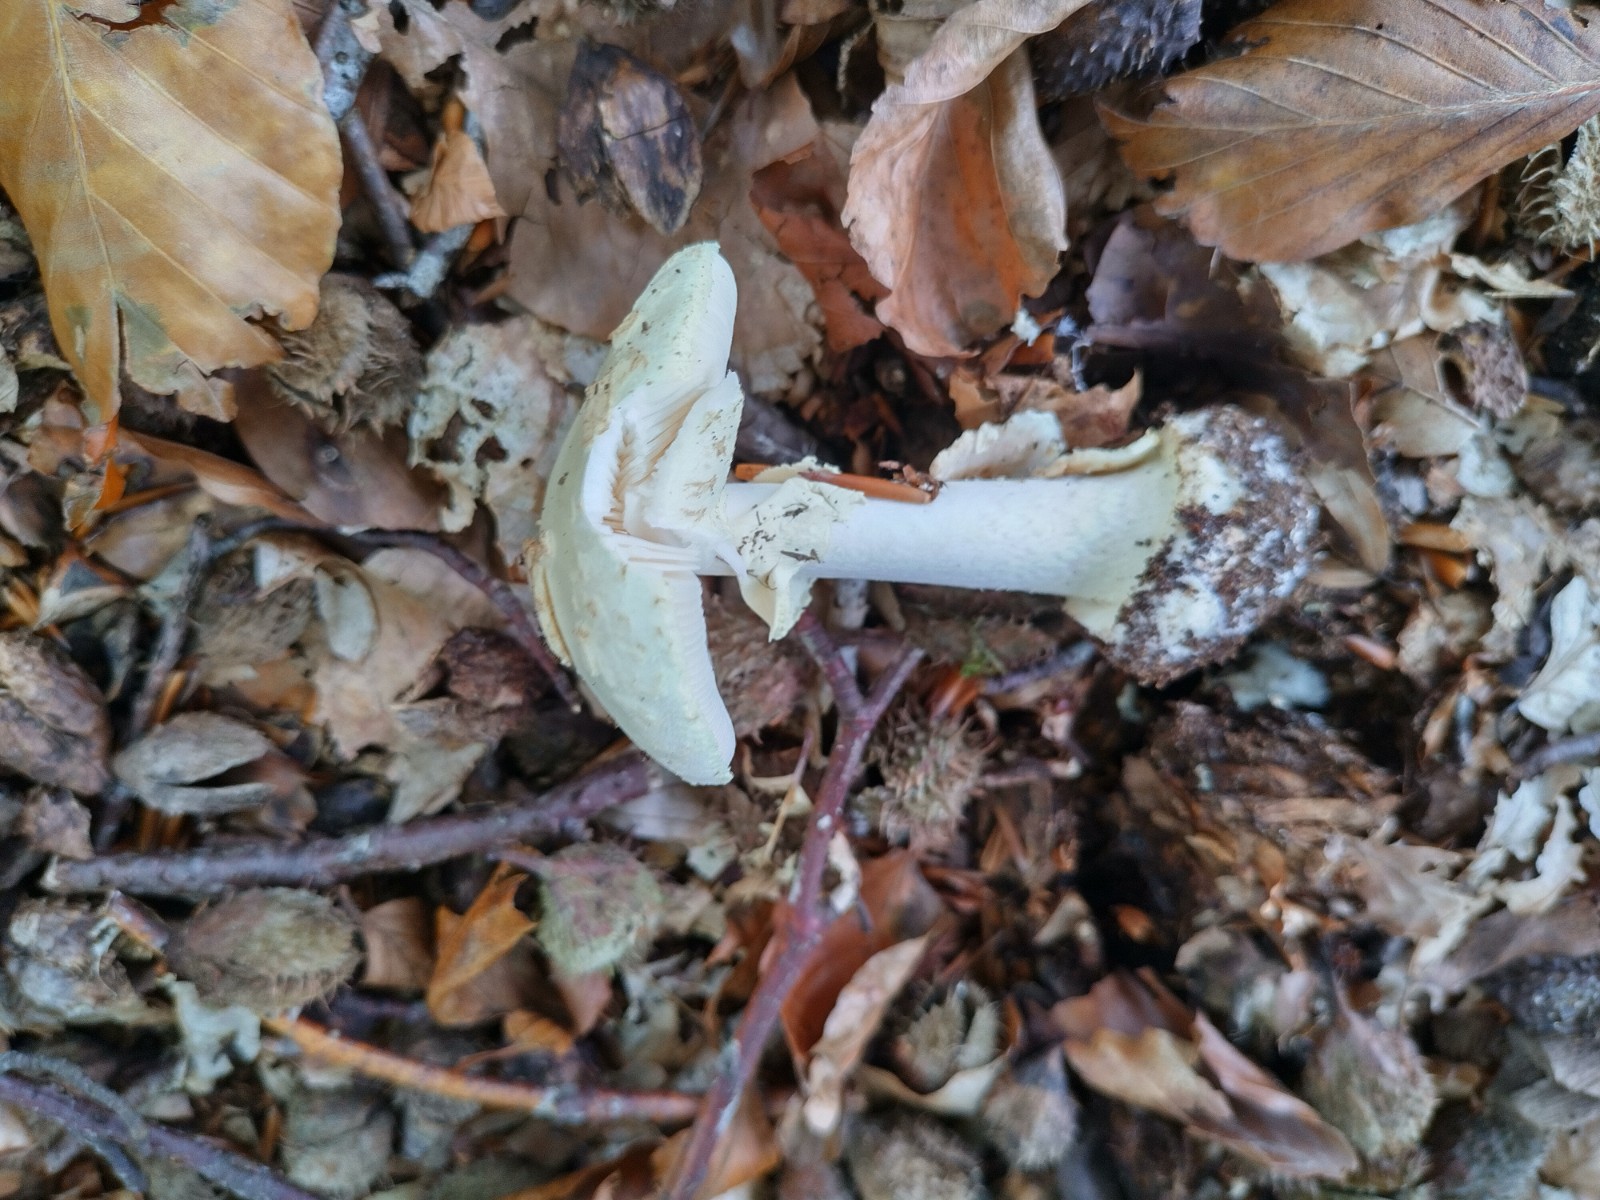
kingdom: Fungi
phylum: Basidiomycota
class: Agaricomycetes
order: Agaricales
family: Amanitaceae
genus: Amanita
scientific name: Amanita citrina
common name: kugleknoldet fluesvamp
